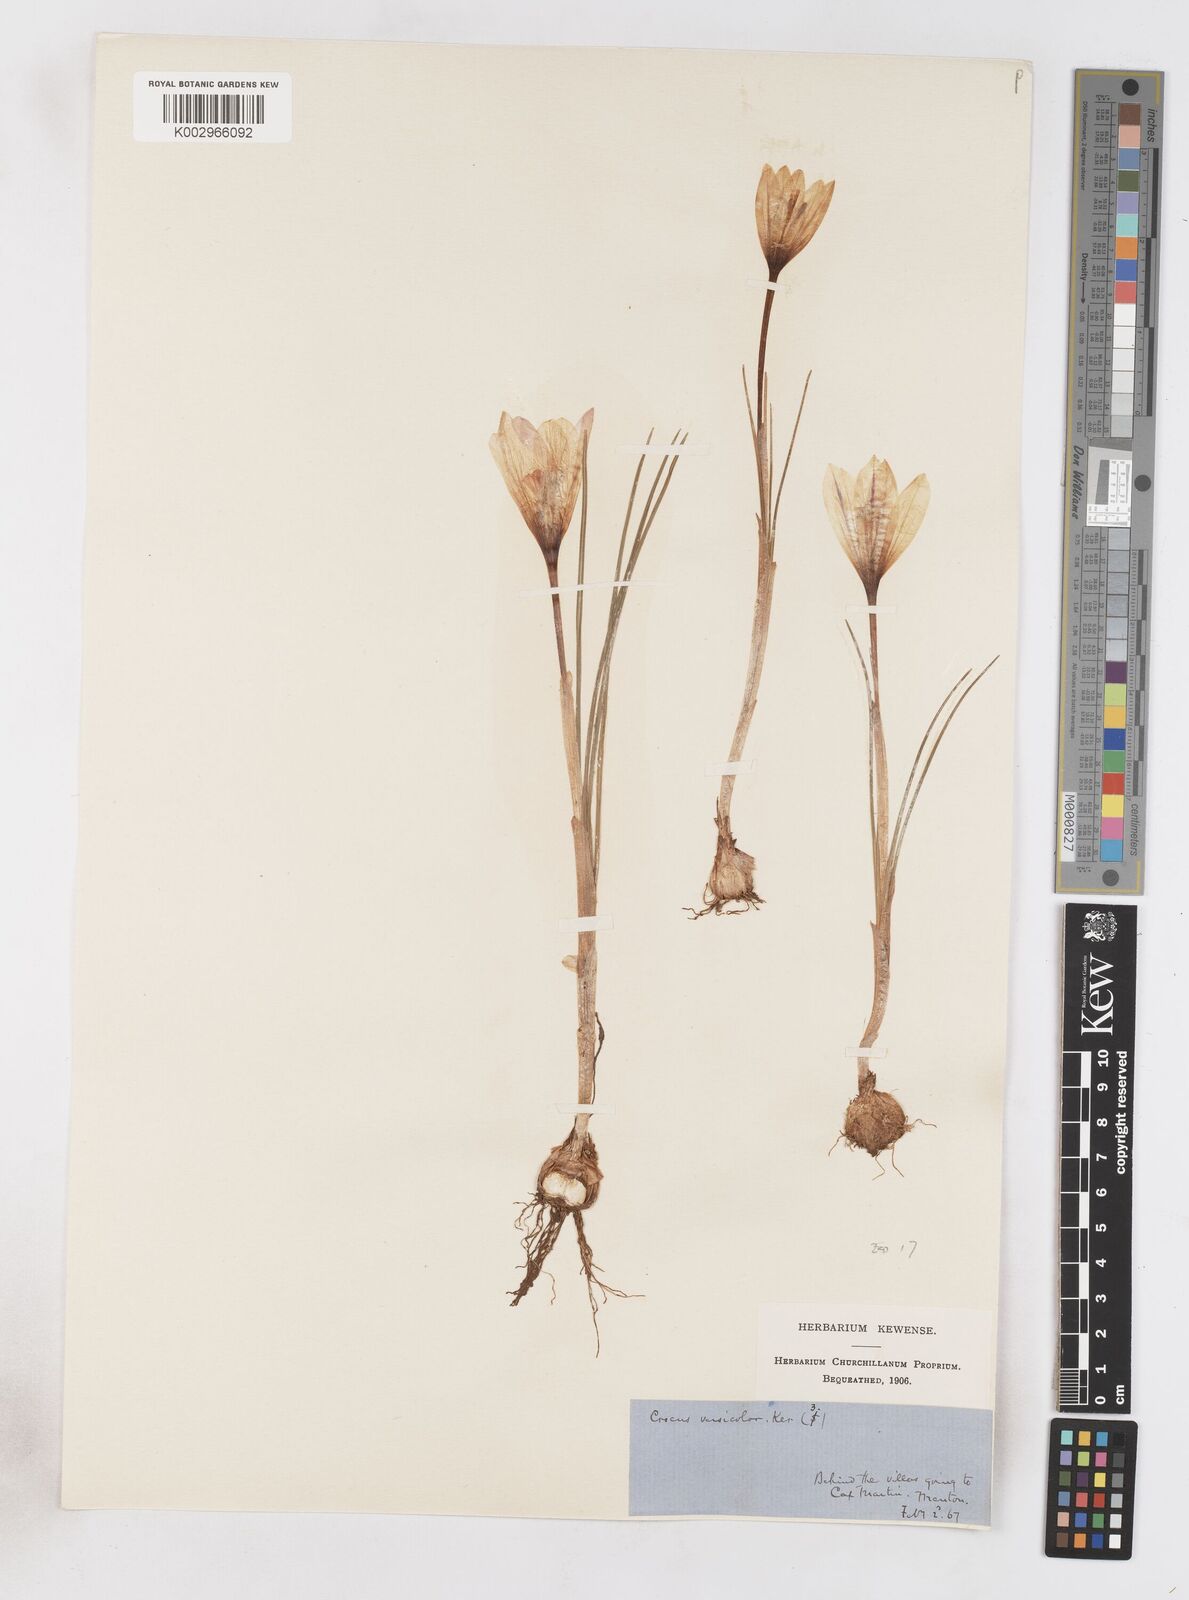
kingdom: Plantae
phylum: Tracheophyta
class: Liliopsida
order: Asparagales
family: Iridaceae
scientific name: Iridaceae
